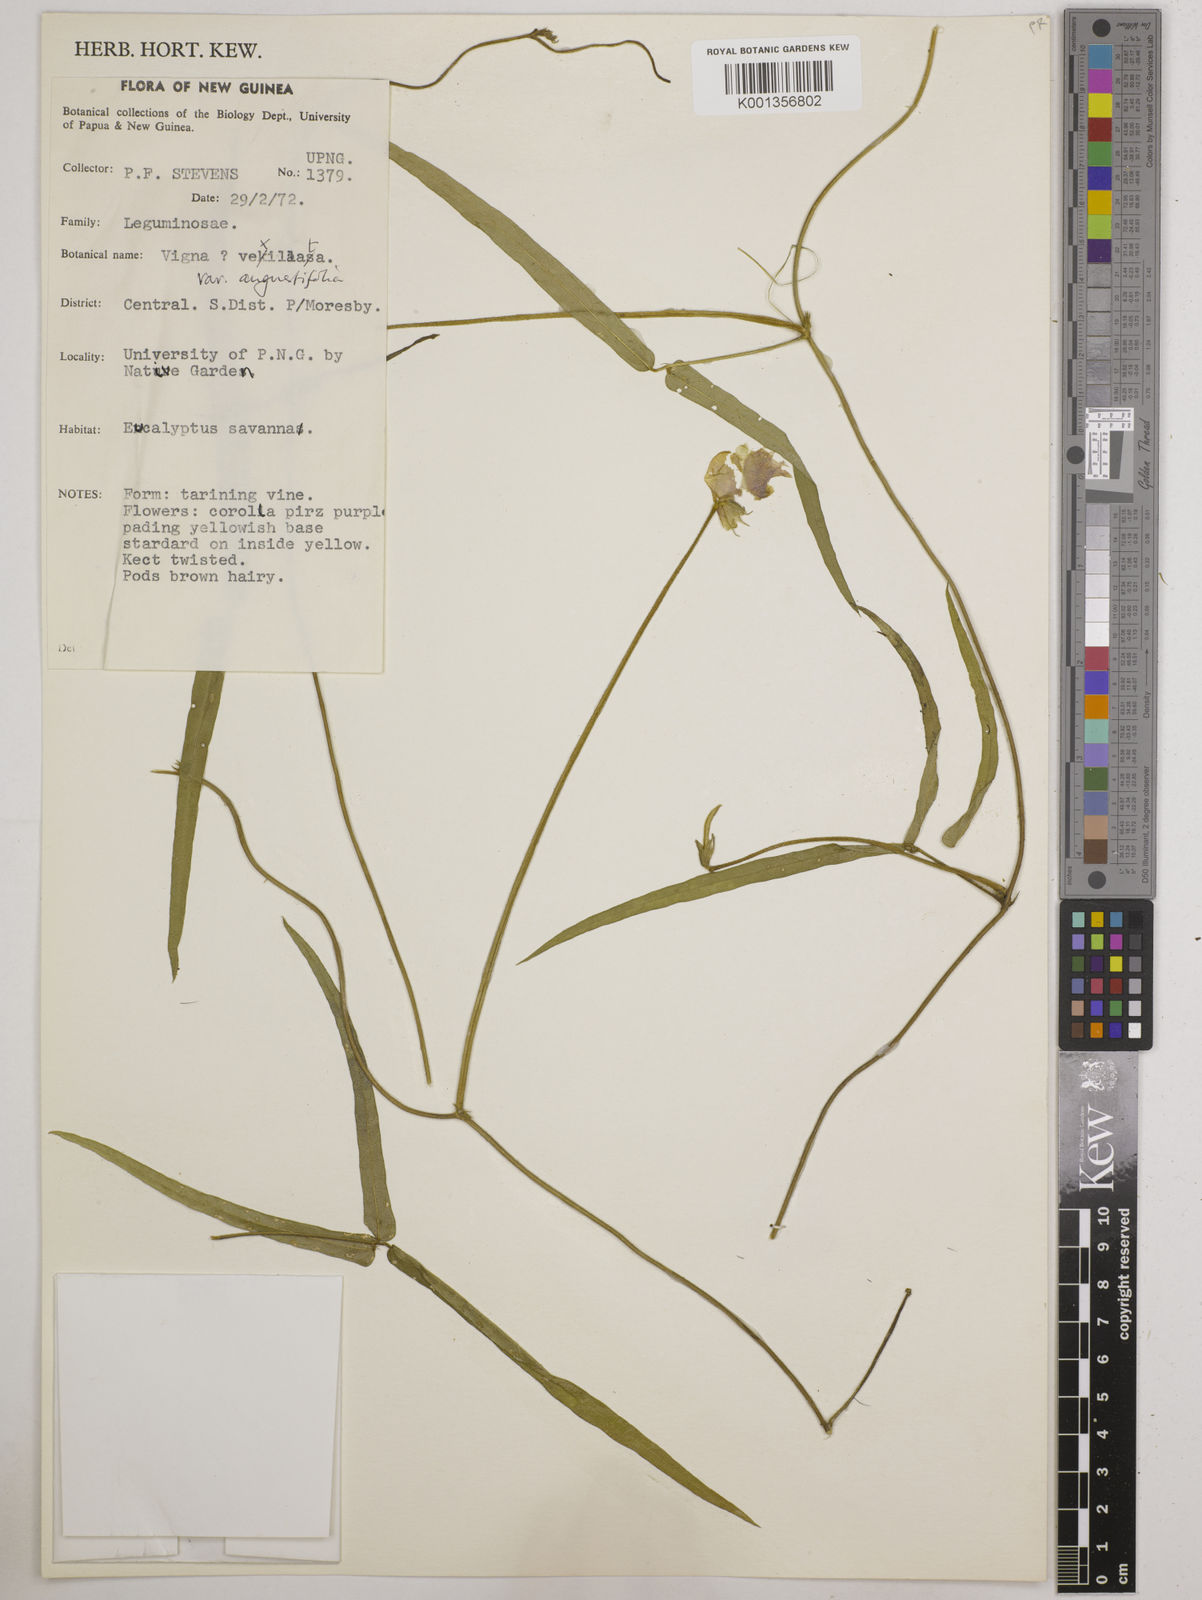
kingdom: Plantae
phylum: Tracheophyta
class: Magnoliopsida
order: Fabales
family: Fabaceae
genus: Vigna
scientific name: Vigna vexillata
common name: Zombi pea
